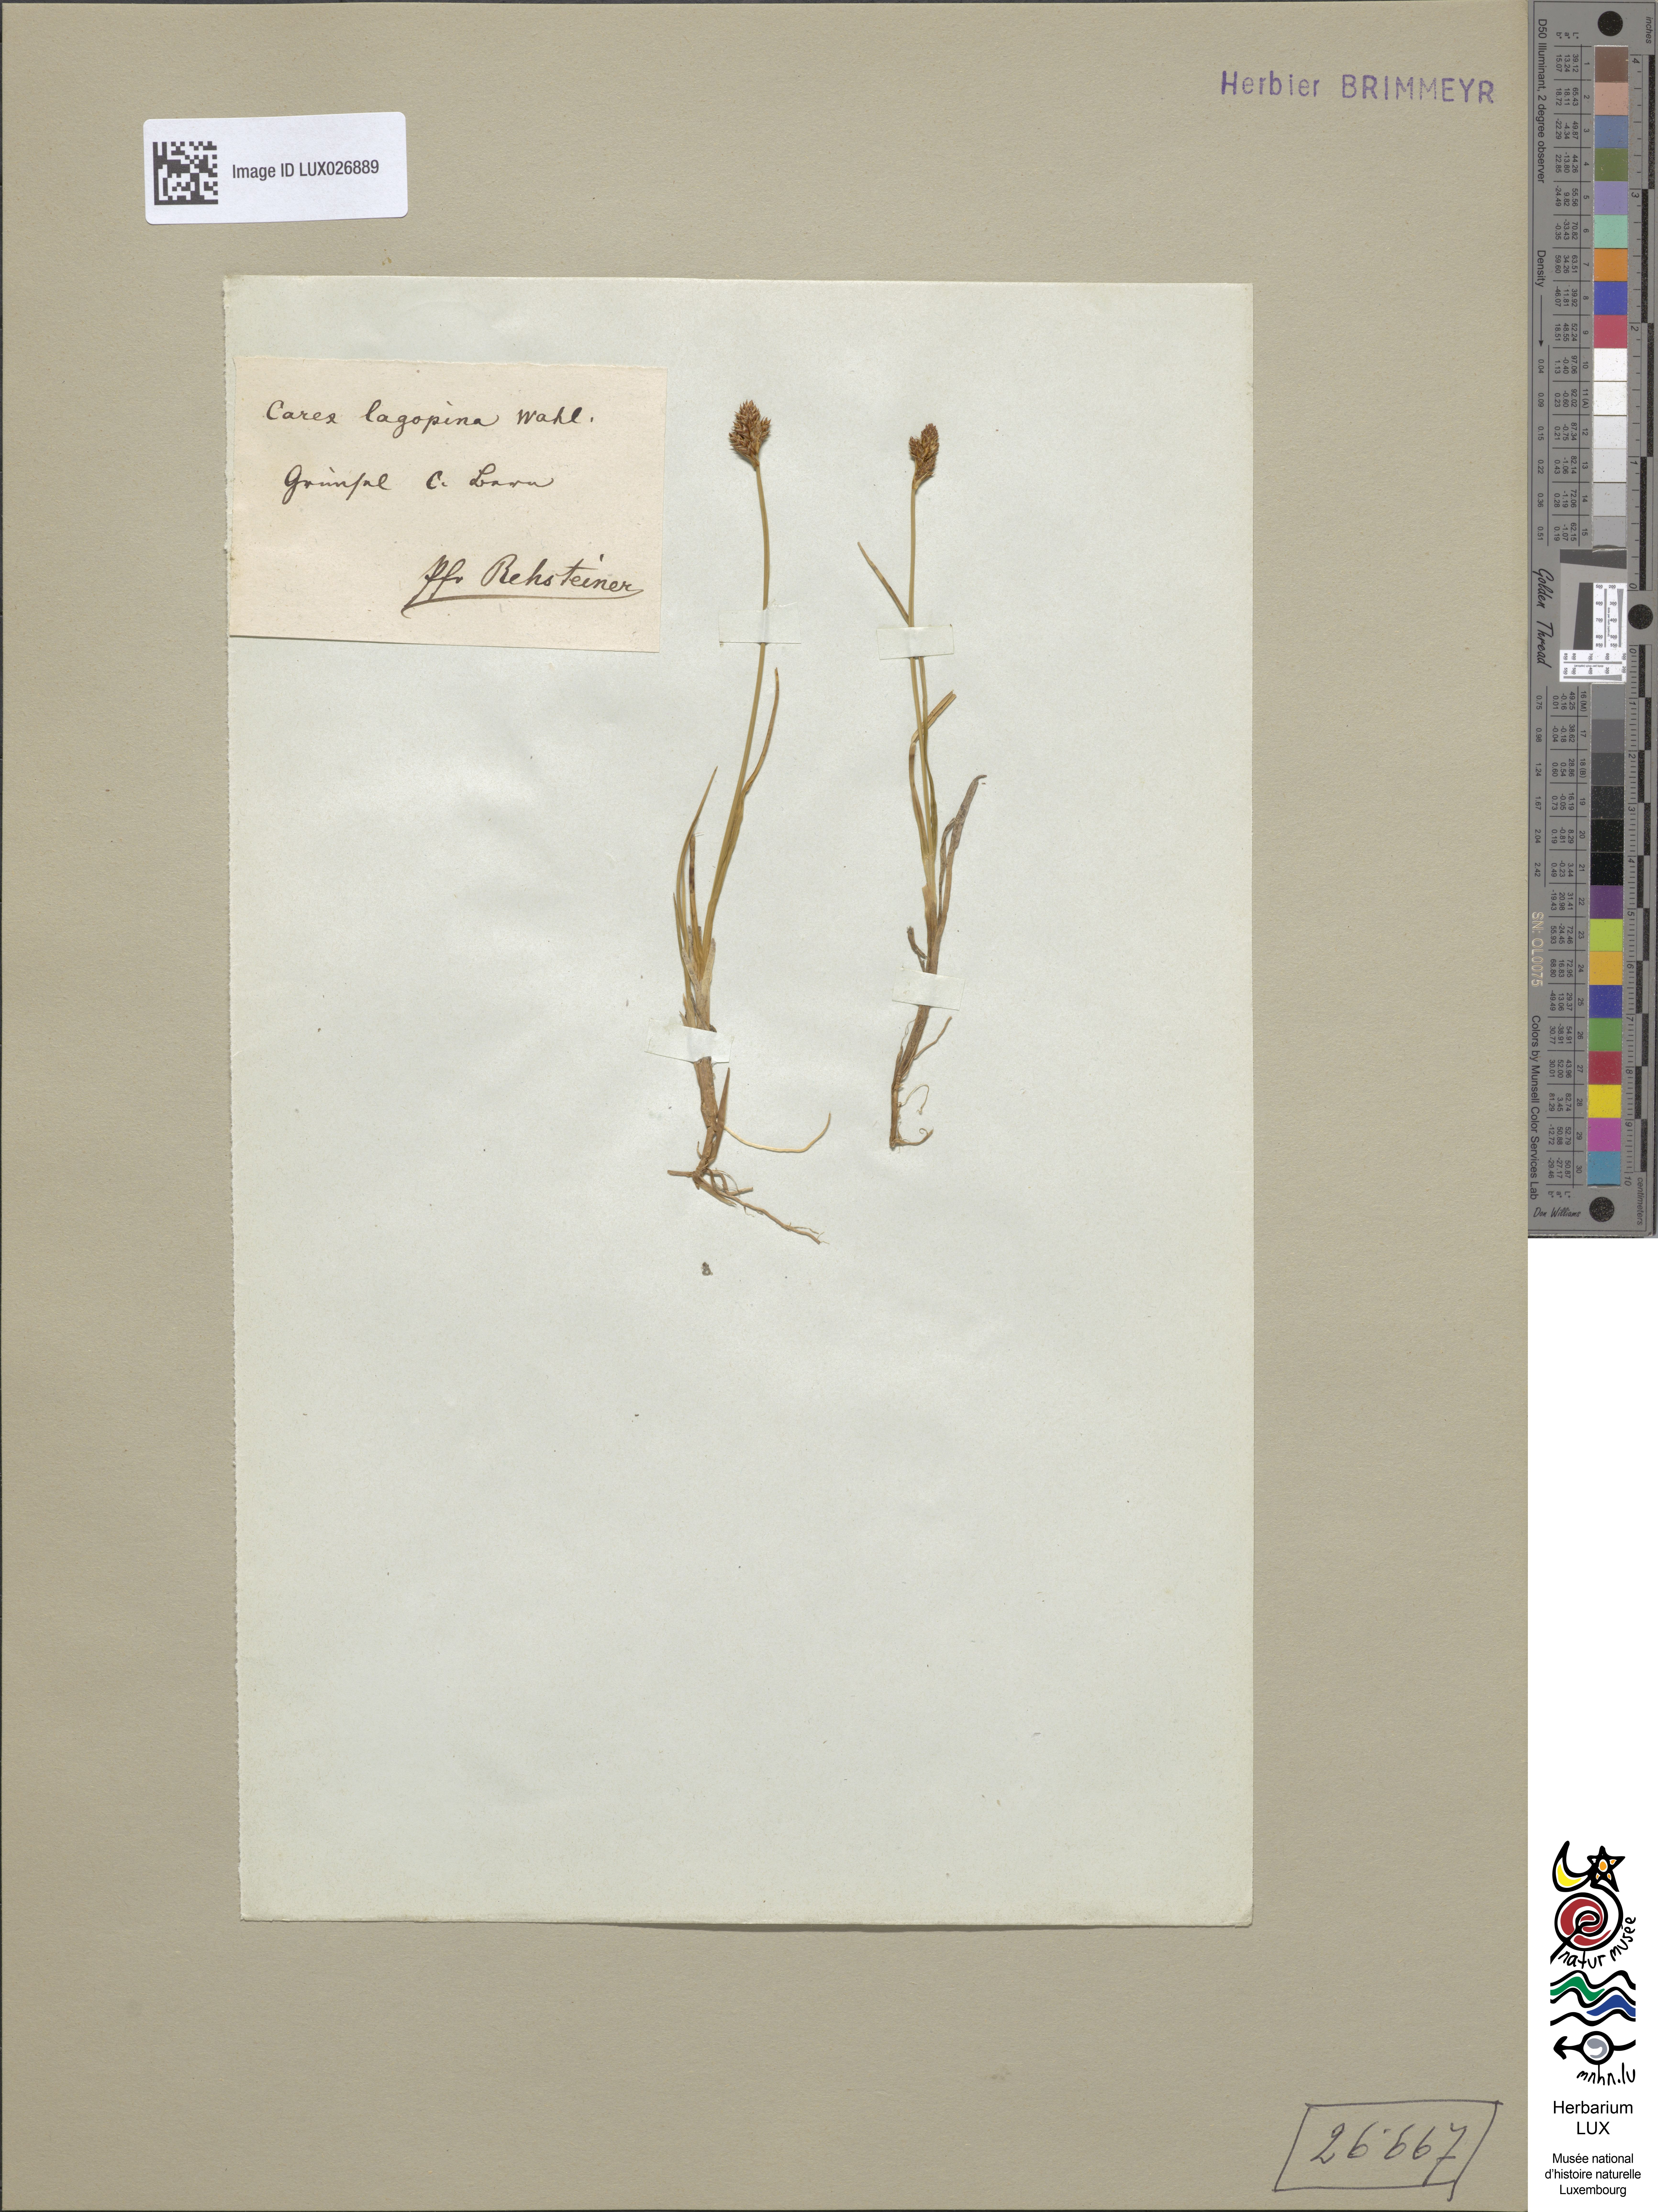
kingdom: Plantae
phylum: Tracheophyta
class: Liliopsida
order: Poales
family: Cyperaceae
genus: Carex
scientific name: Carex lachenalii
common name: Hare's-foot sedge
